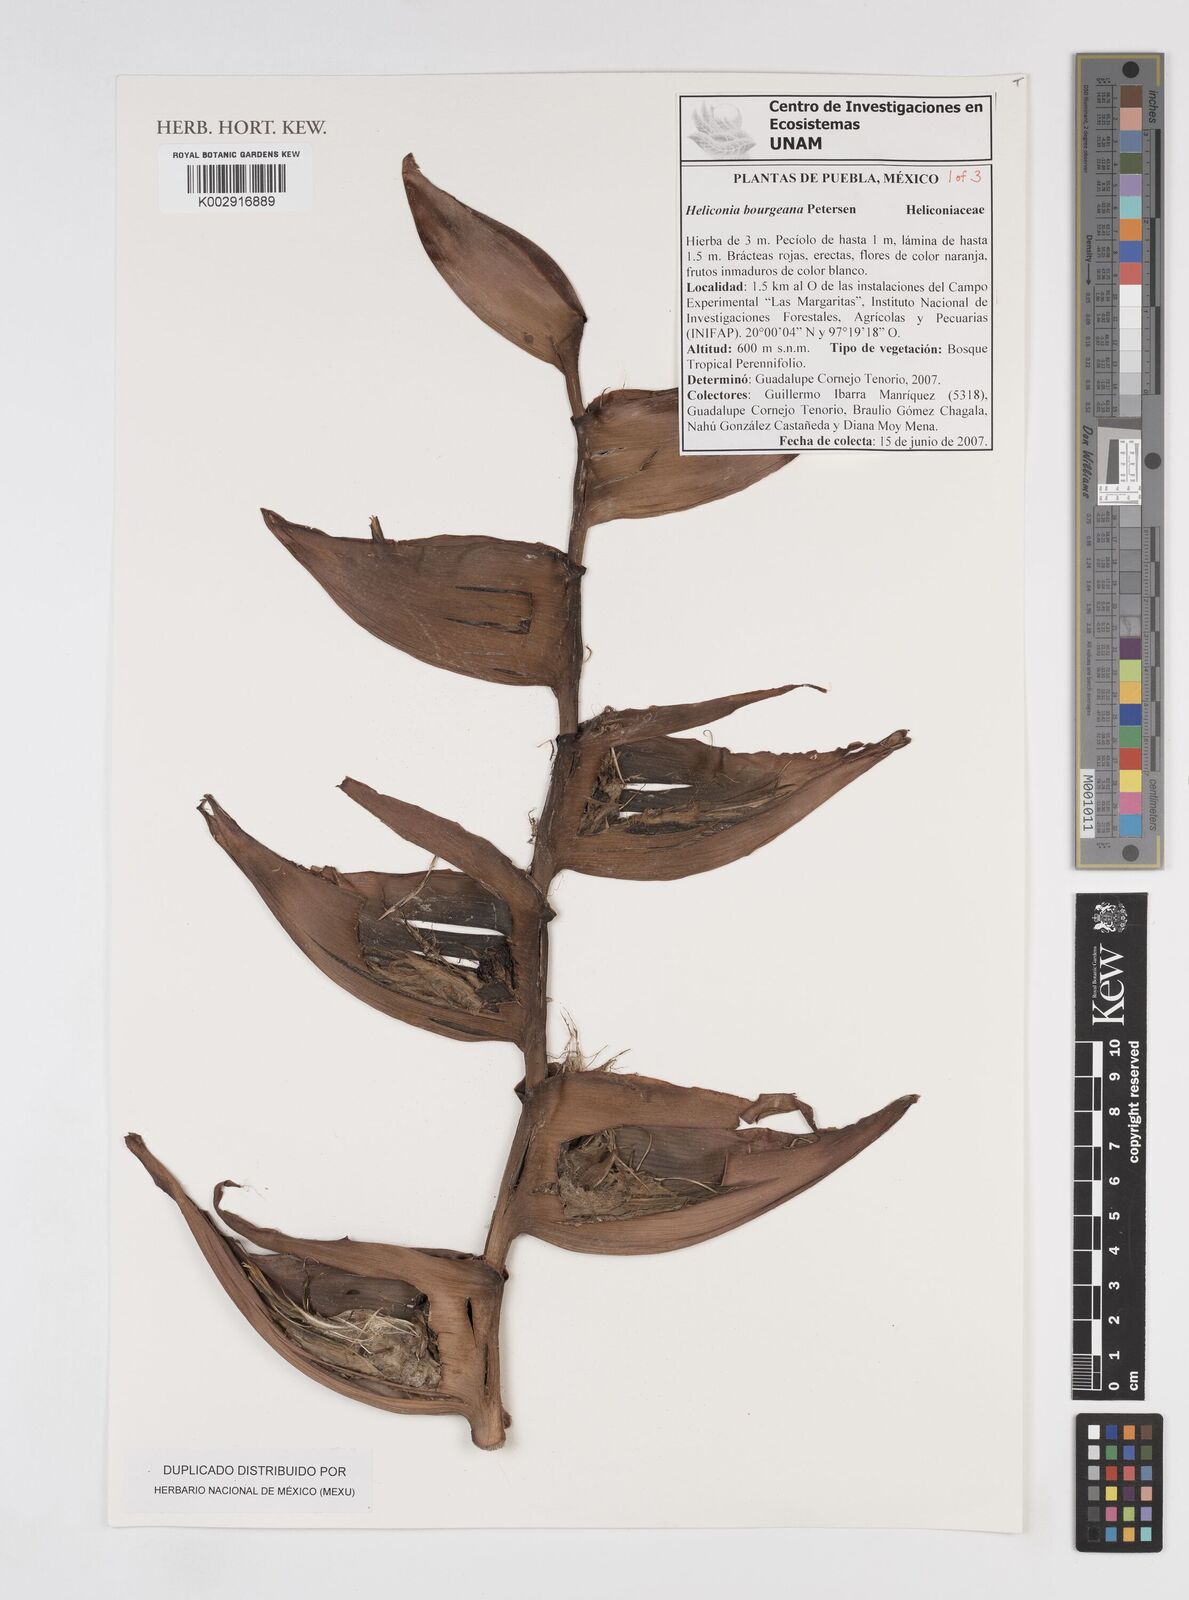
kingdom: Plantae
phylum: Tracheophyta
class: Liliopsida
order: Zingiberales
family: Heliconiaceae
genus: Heliconia
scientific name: Heliconia bourgaeana
